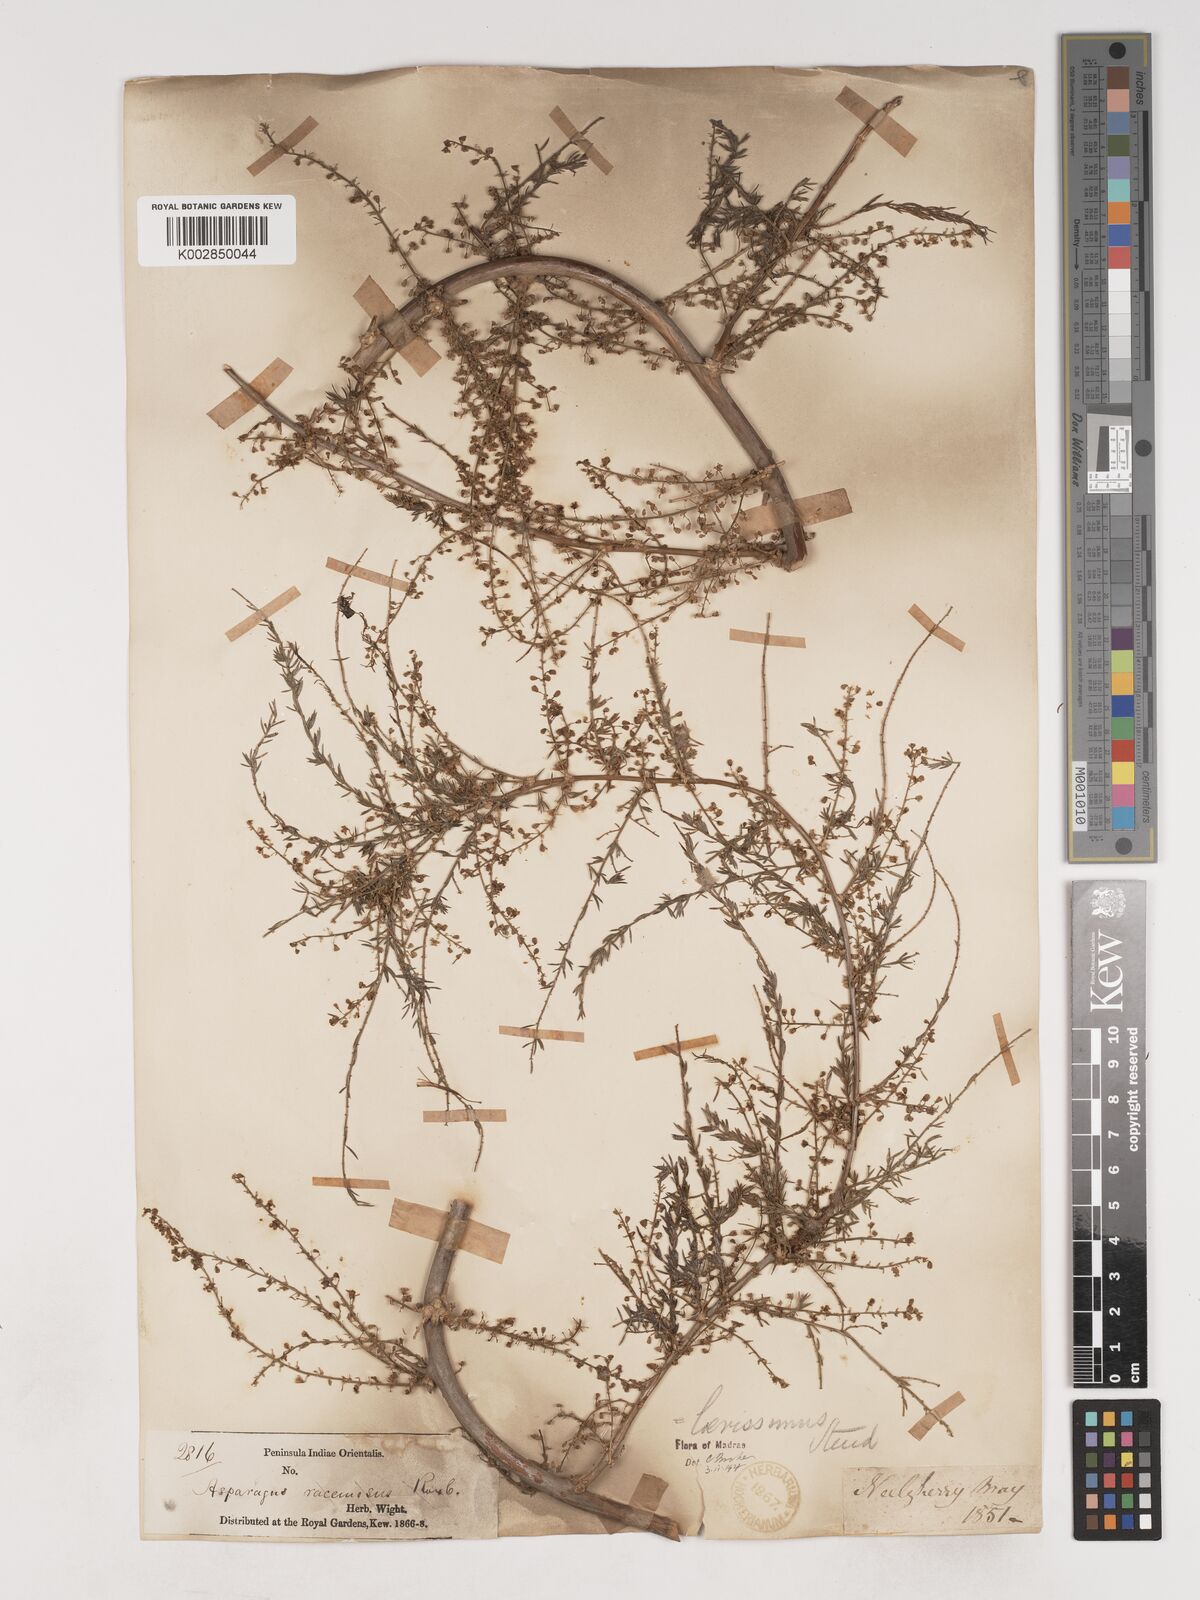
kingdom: Plantae
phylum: Tracheophyta
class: Liliopsida
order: Asparagales
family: Asparagaceae
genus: Asparagus
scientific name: Asparagus laevissimus
